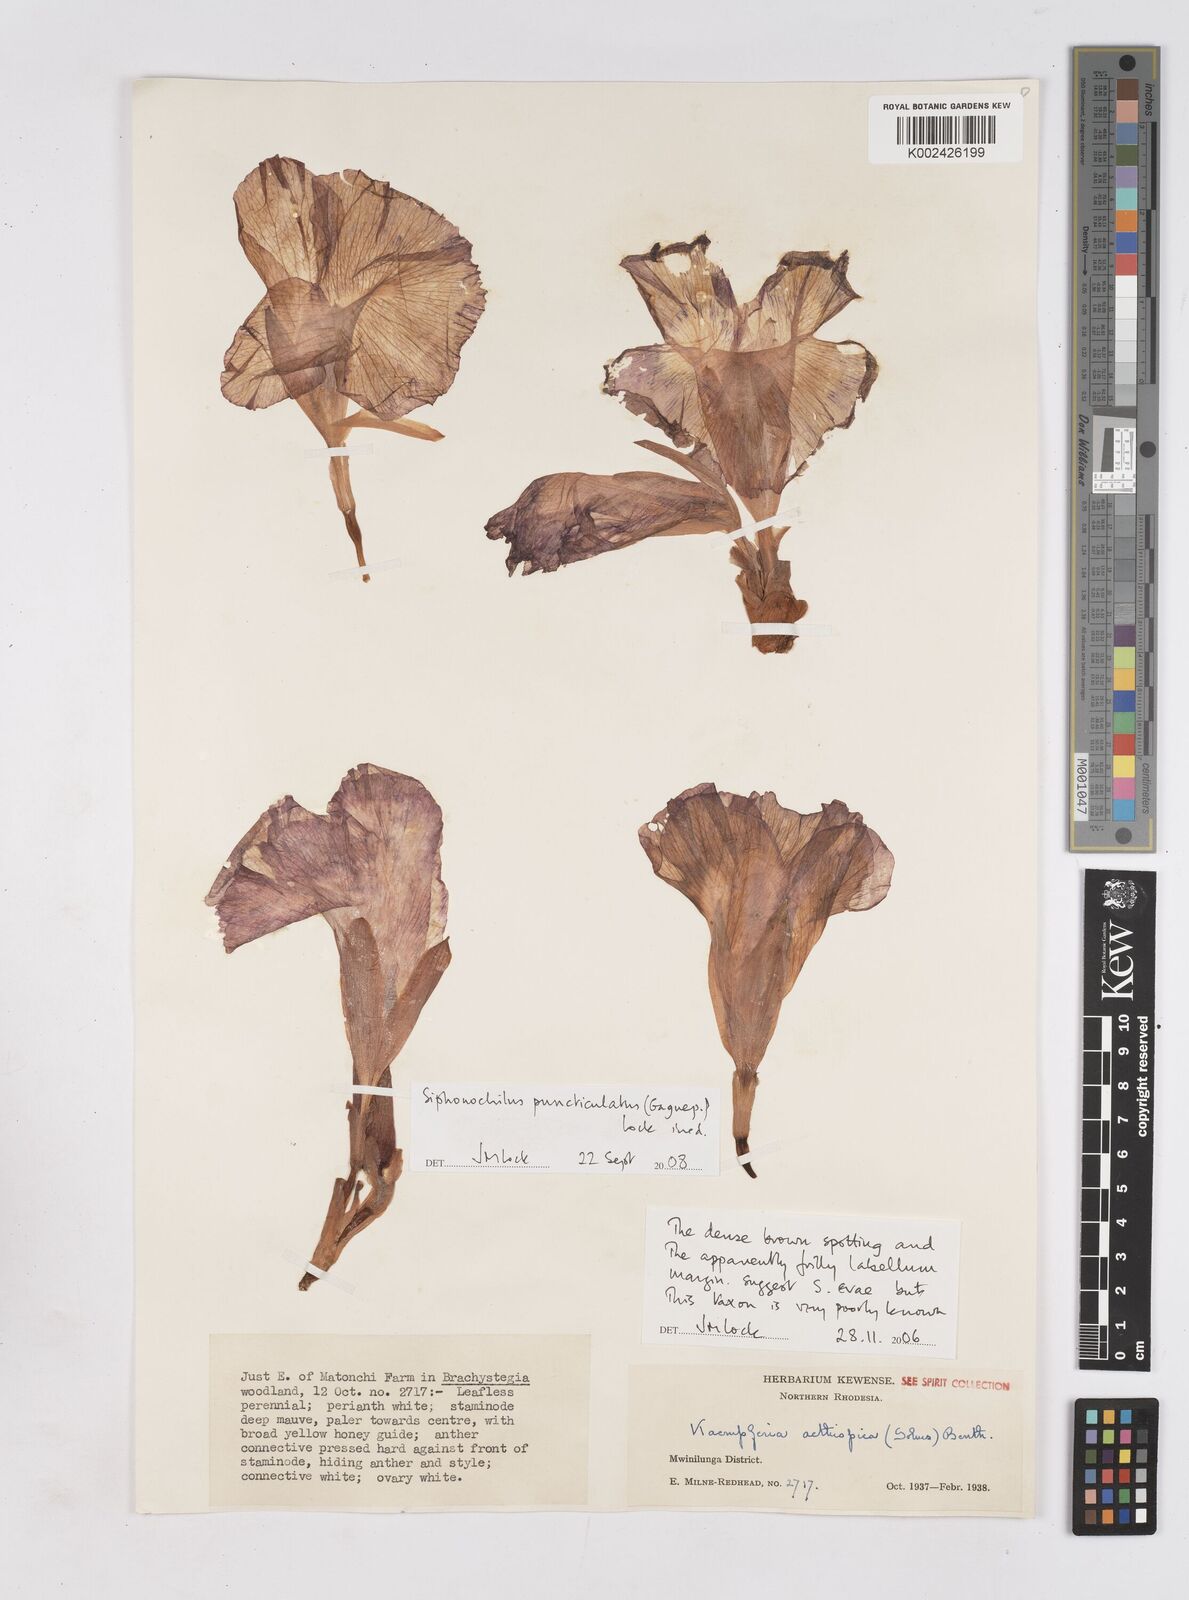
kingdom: Plantae
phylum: Tracheophyta
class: Liliopsida
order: Zingiberales
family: Zingiberaceae
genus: Siphonochilus
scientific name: Siphonochilus puncticulatus
